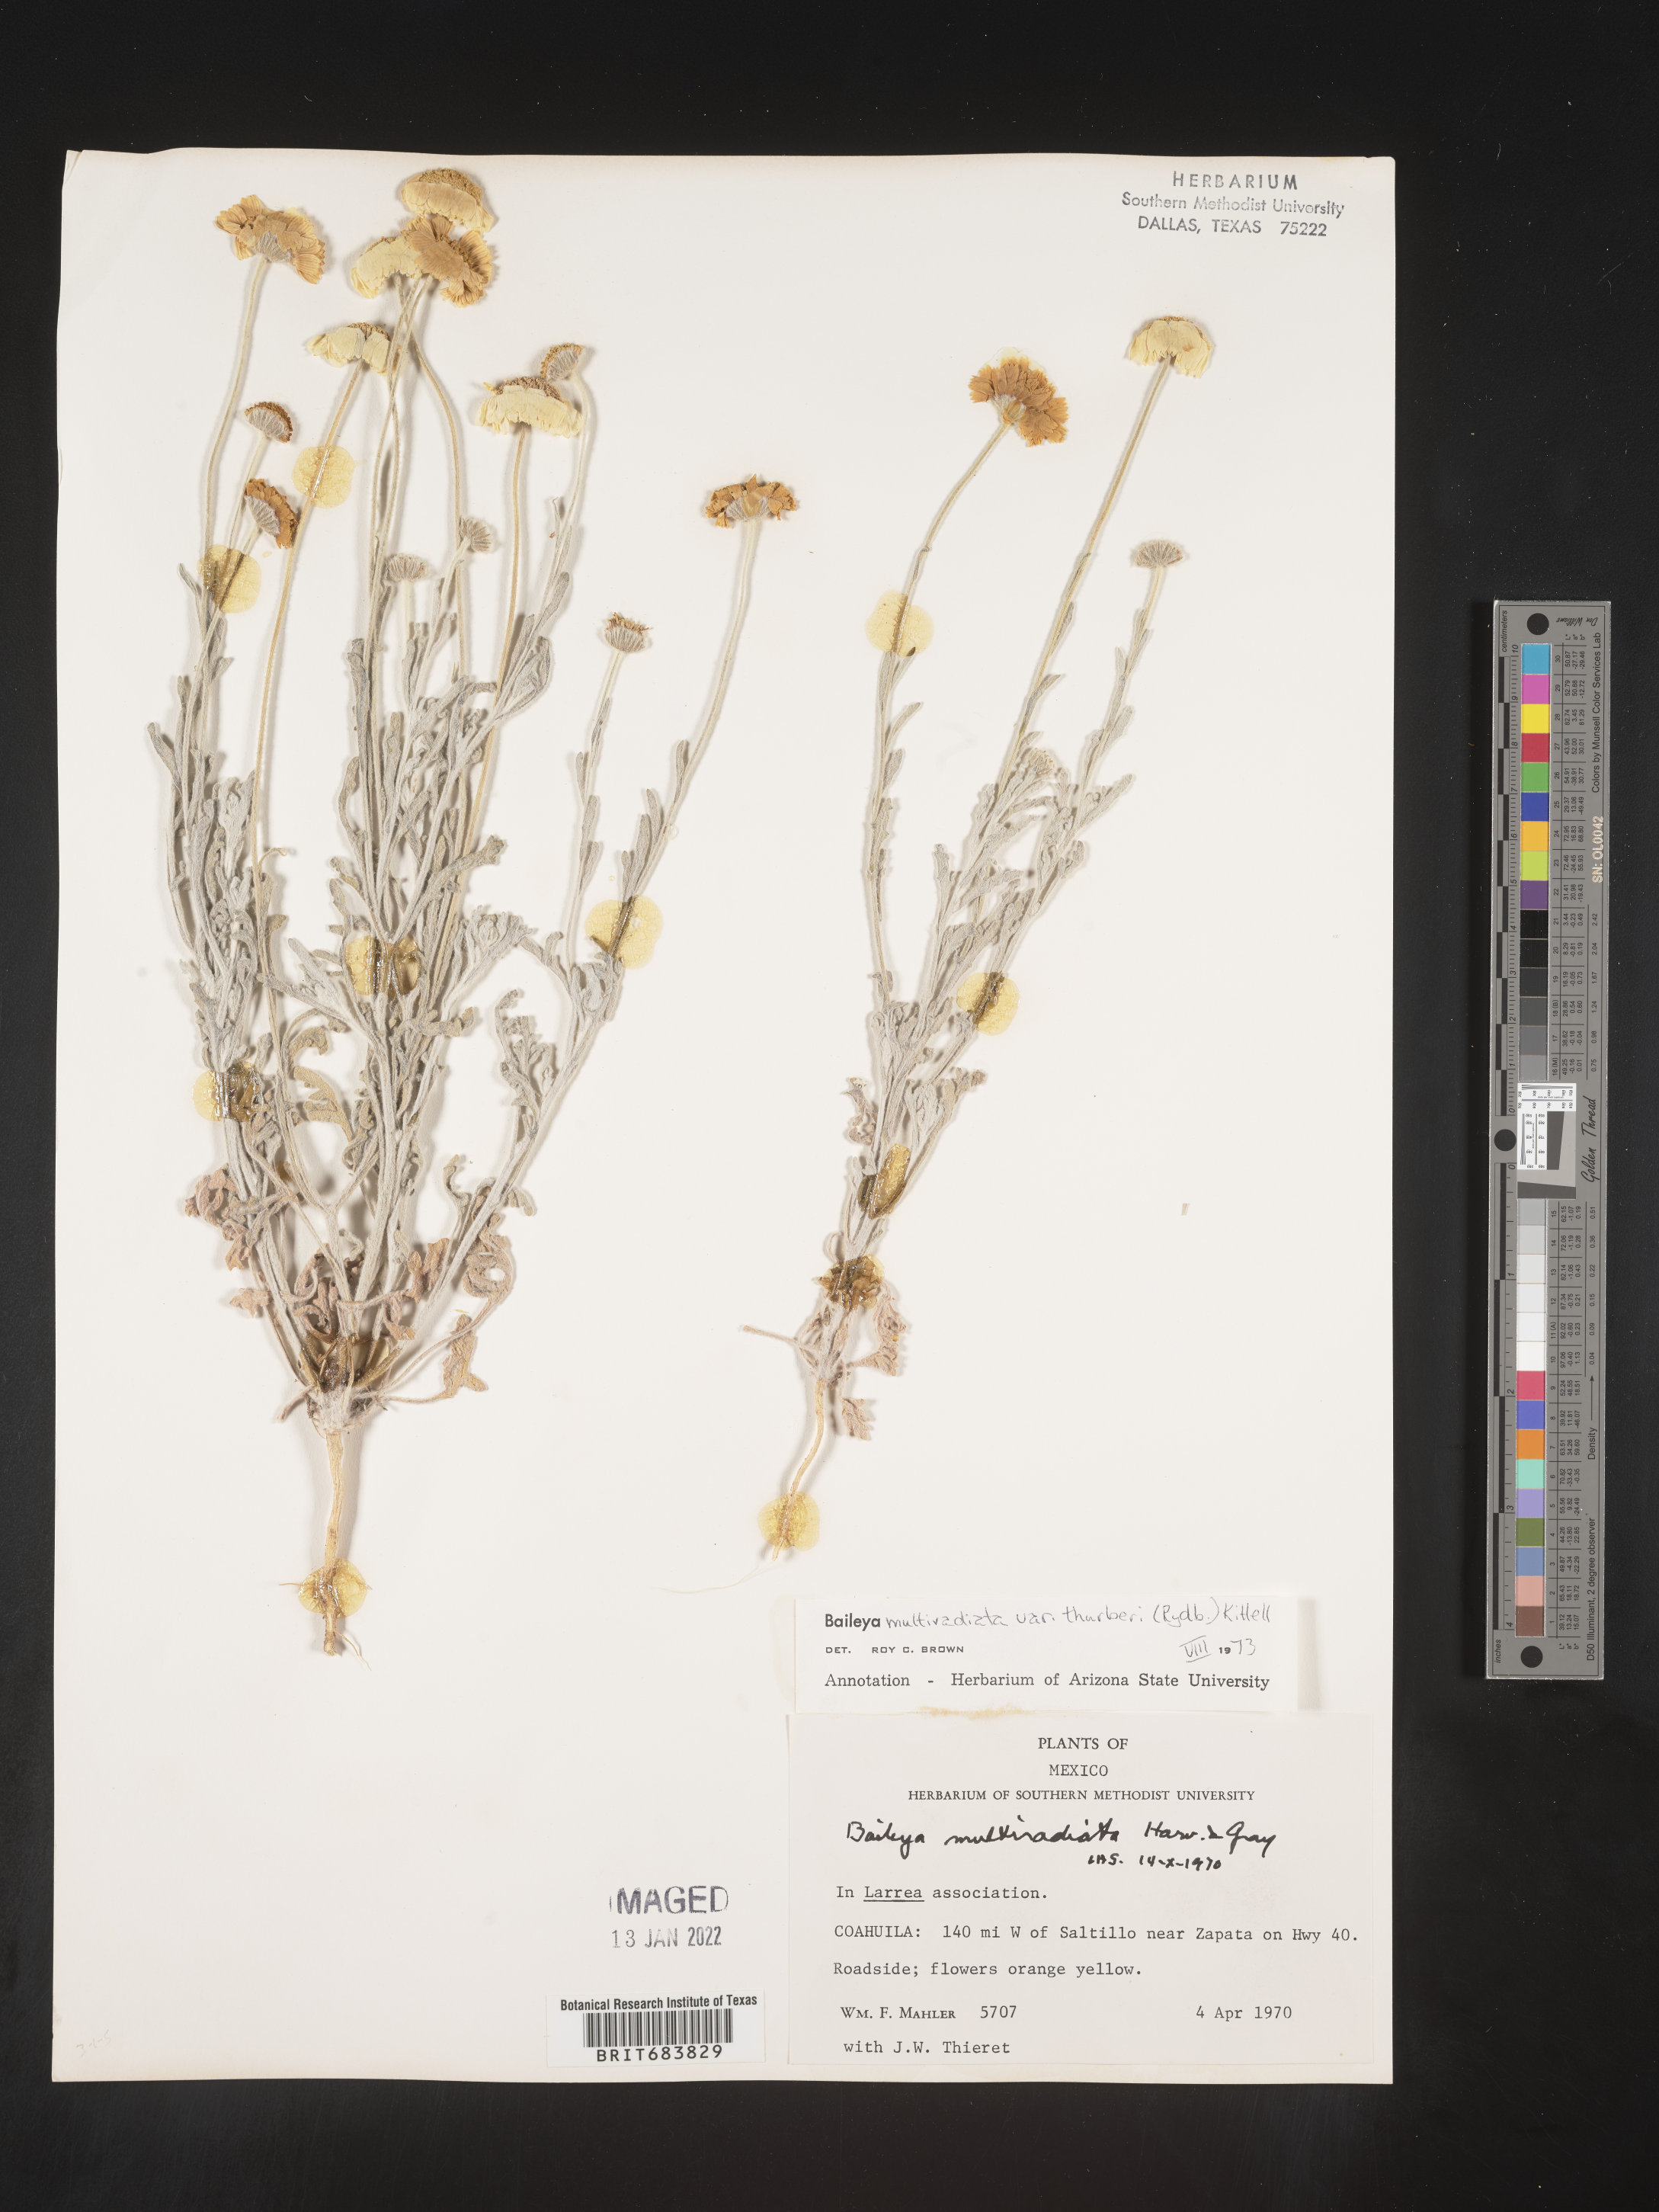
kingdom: Plantae
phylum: Tracheophyta
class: Magnoliopsida
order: Asterales
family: Asteraceae
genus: Baileya
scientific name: Baileya
